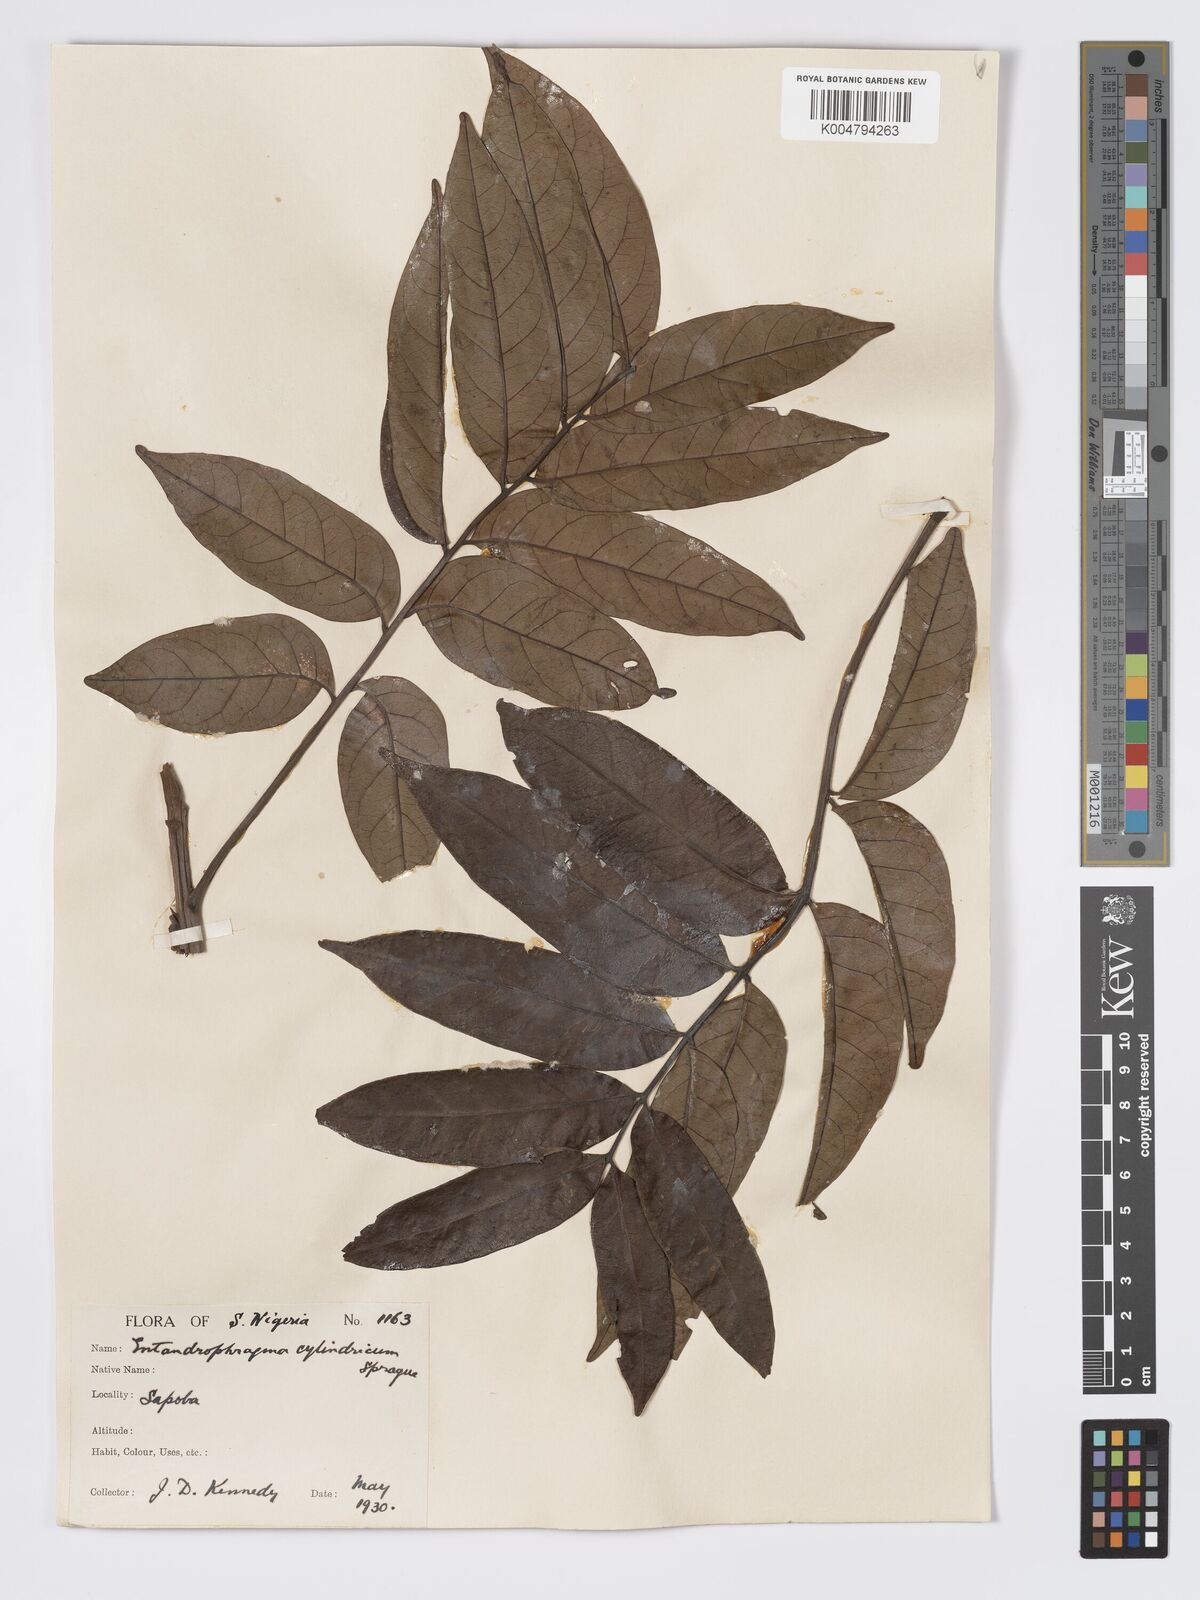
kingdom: Plantae
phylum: Tracheophyta
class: Magnoliopsida
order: Sapindales
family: Meliaceae
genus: Entandrophragma
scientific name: Entandrophragma cylindricum
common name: Sapele
